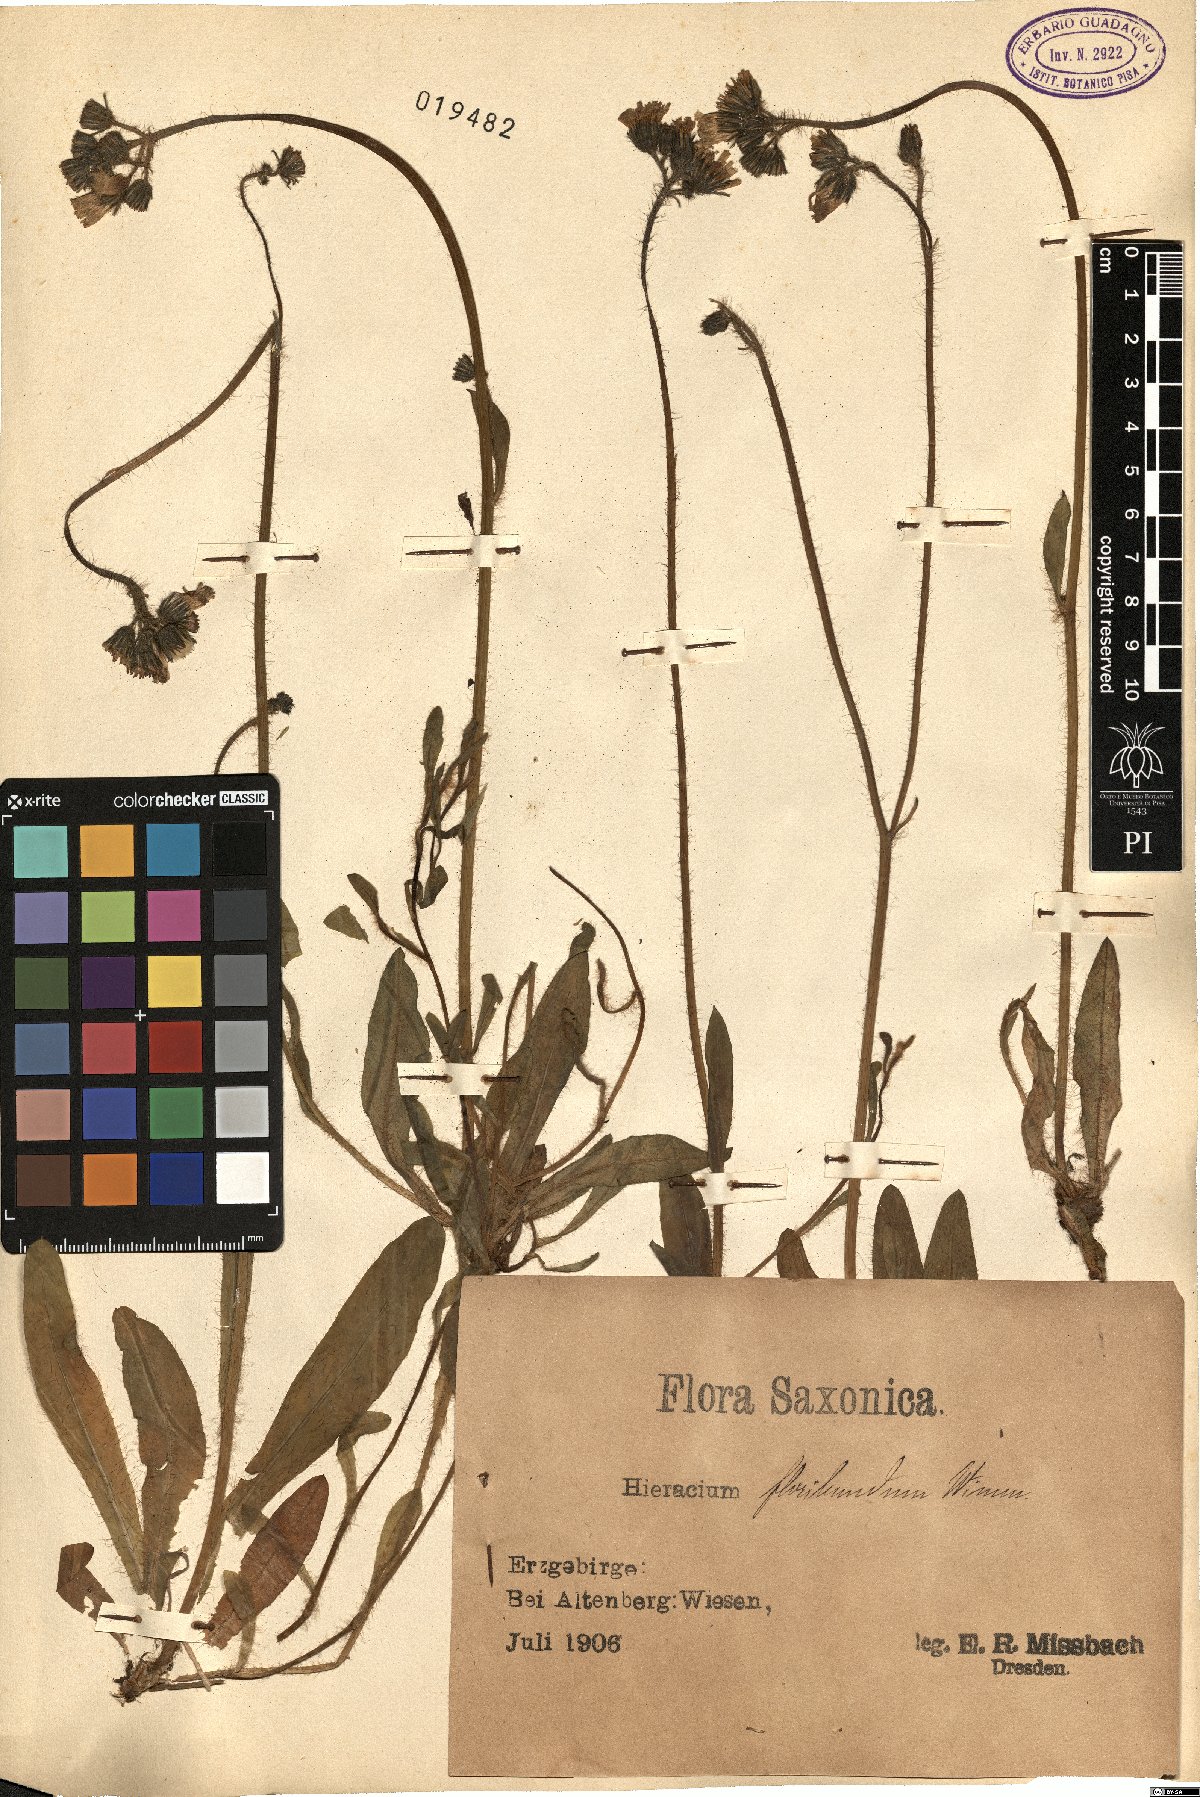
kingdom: Plantae
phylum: Tracheophyta
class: Magnoliopsida
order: Asterales
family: Asteraceae
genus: Pilosella
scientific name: Pilosella floribunda
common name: Glaucous hawkweed
